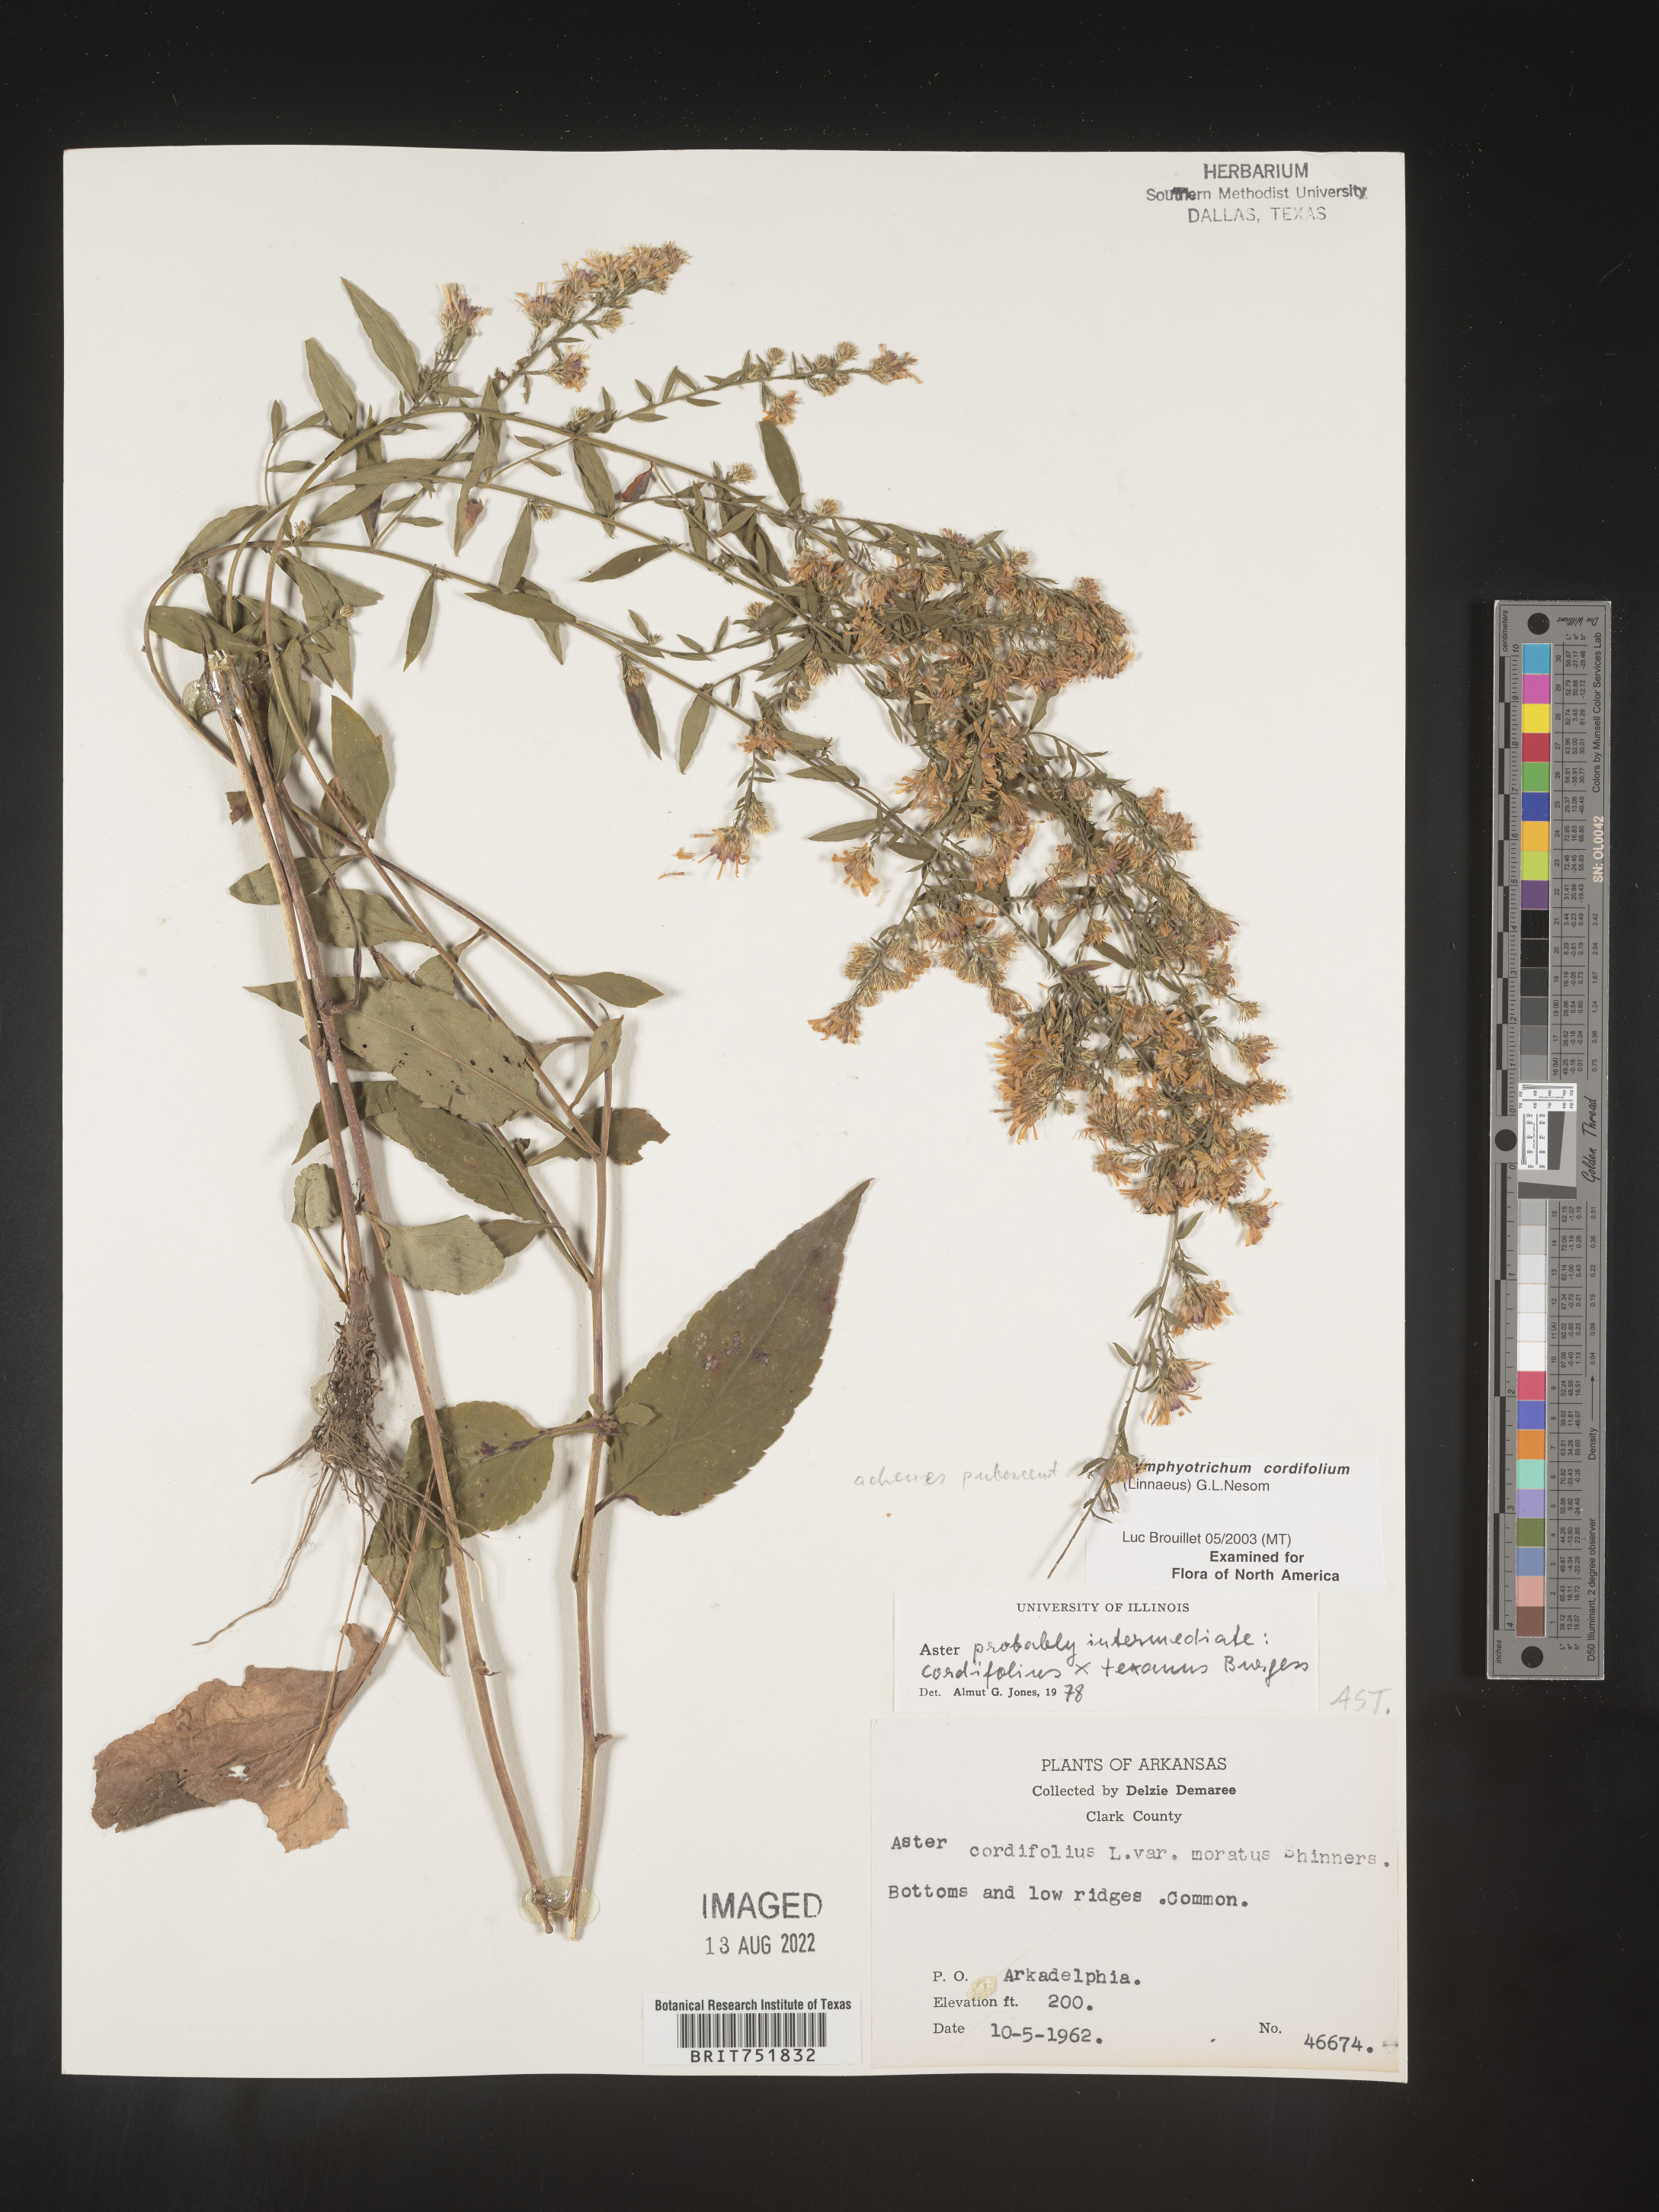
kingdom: Plantae
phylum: Tracheophyta
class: Magnoliopsida
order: Asterales
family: Asteraceae
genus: Symphyotrichum
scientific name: Symphyotrichum drummondii
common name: Drummond's aster
